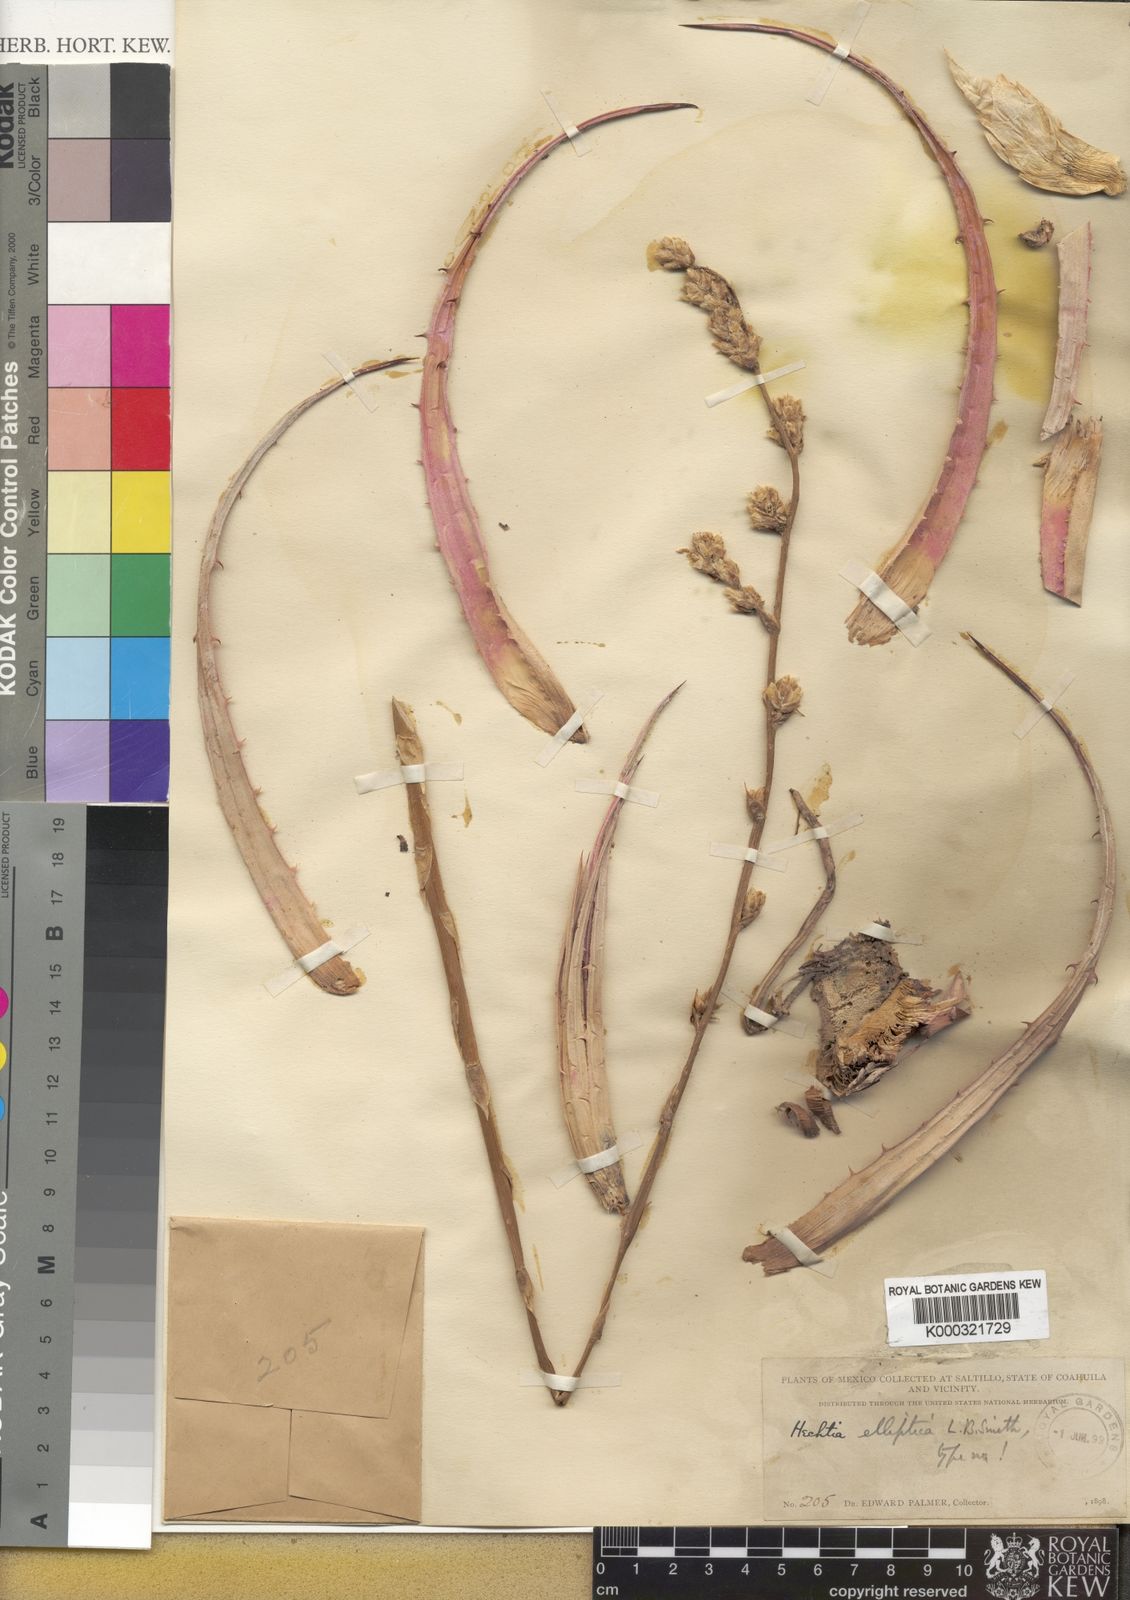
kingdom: Plantae
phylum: Tracheophyta
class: Liliopsida
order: Poales
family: Bromeliaceae
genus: Hechtia
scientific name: Hechtia elliptica
